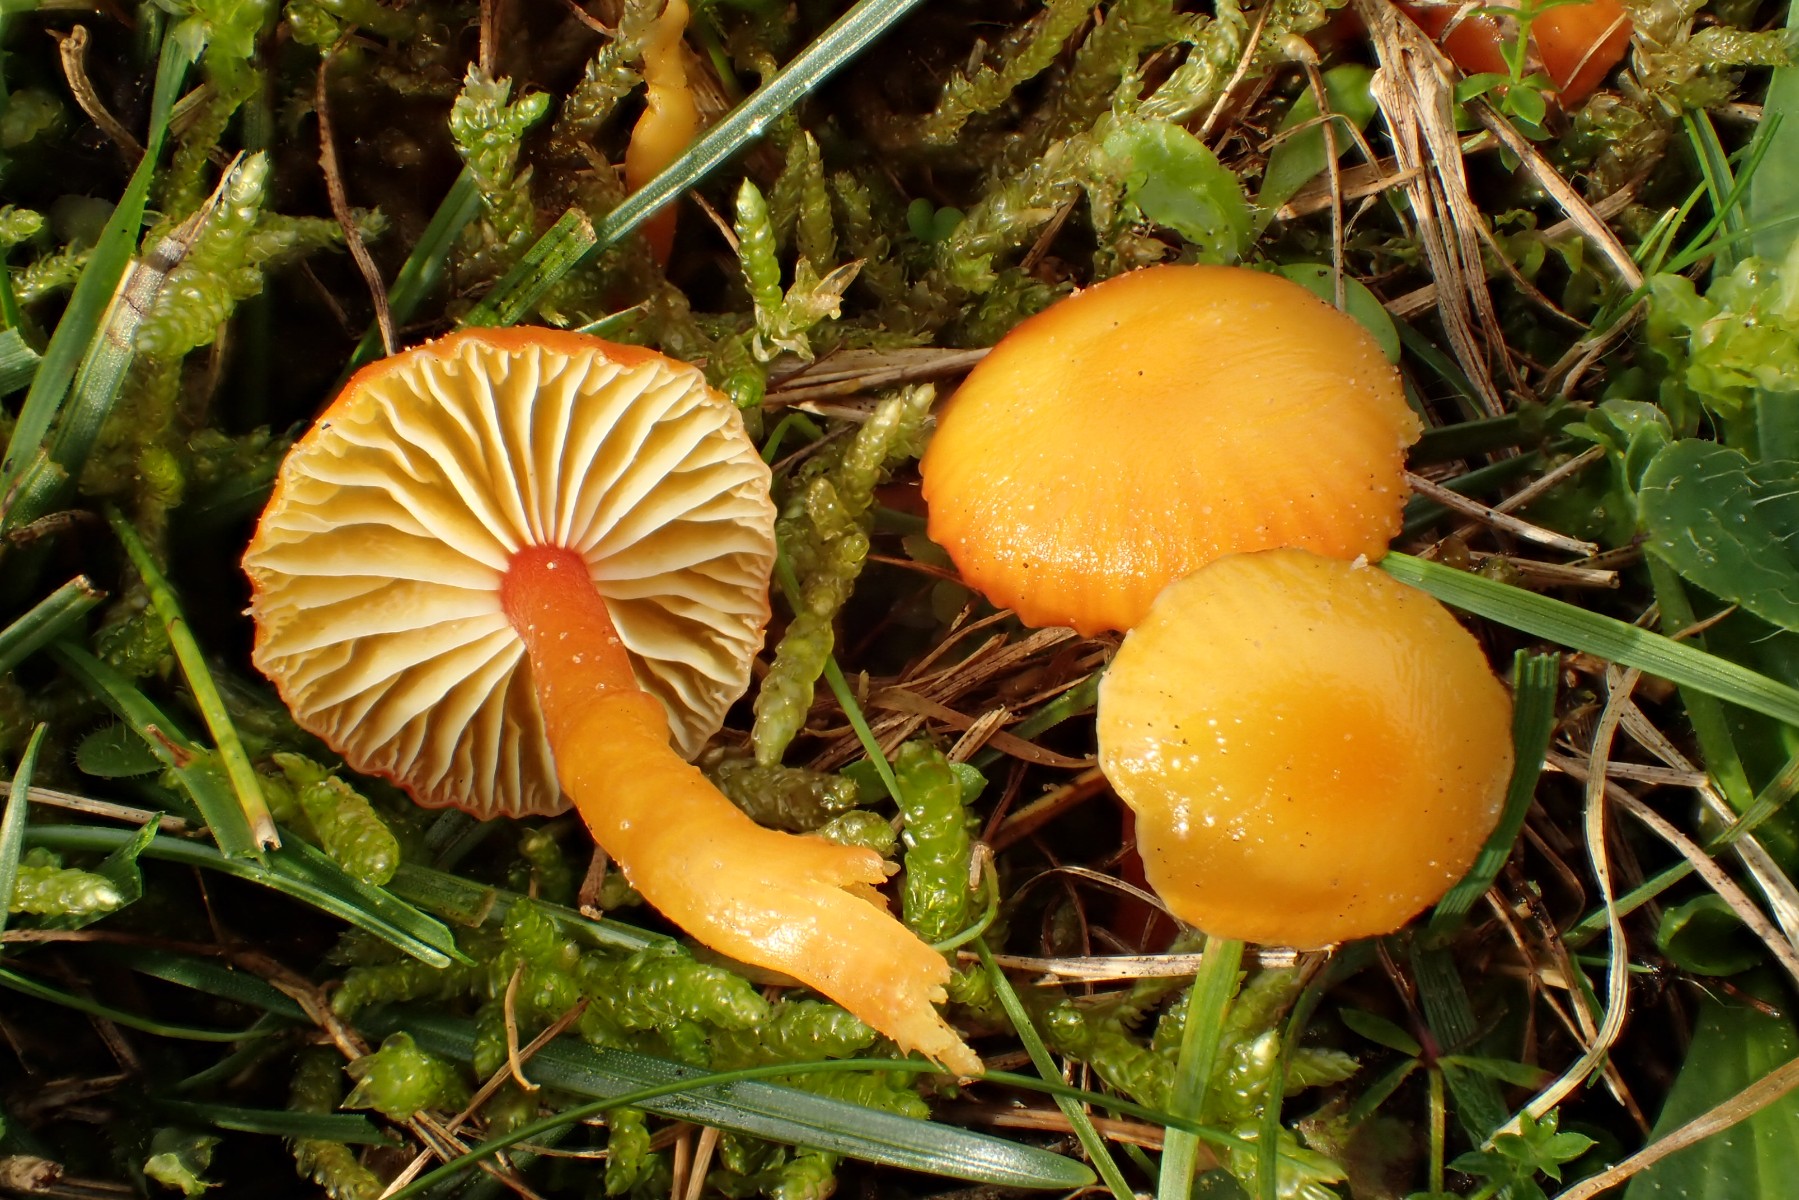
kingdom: Fungi
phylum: Basidiomycota
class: Agaricomycetes
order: Agaricales
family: Hygrophoraceae
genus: Hygrocybe
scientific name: Hygrocybe insipida
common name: liden vokshat
